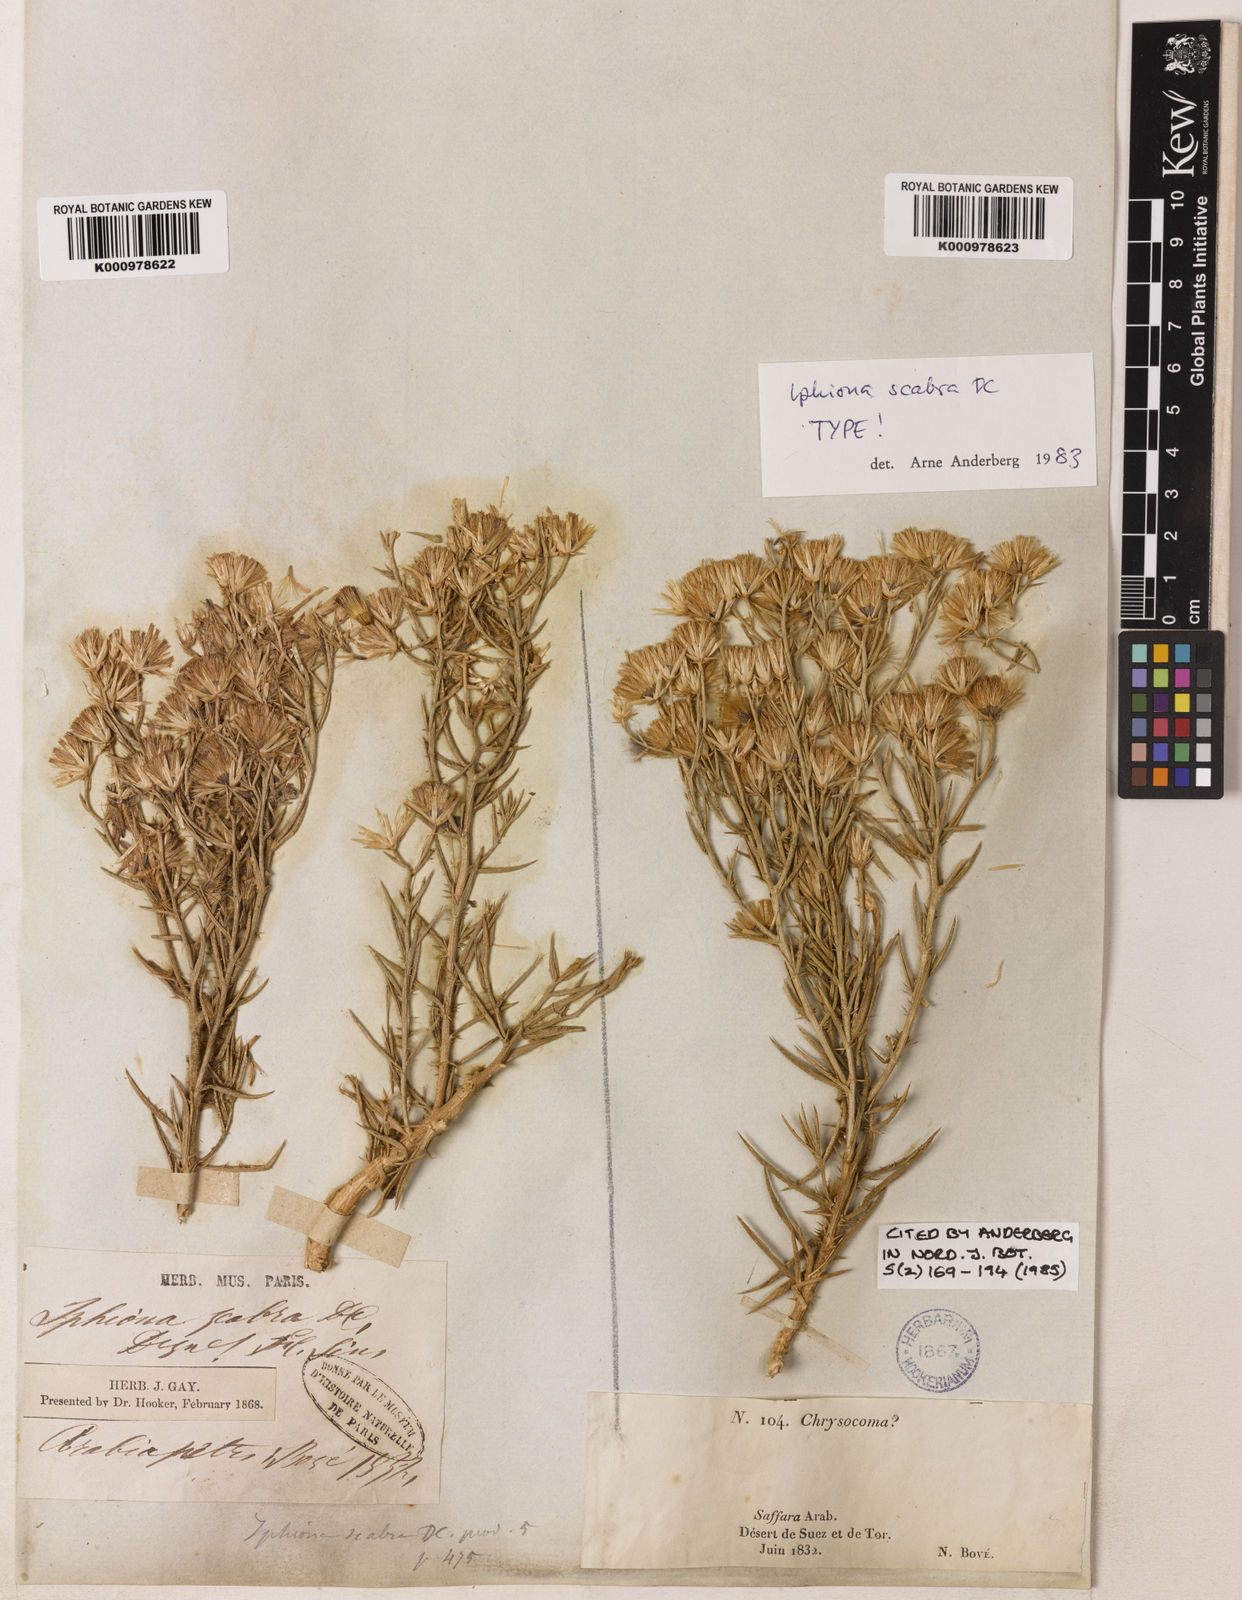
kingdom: Plantae
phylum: Tracheophyta
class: Magnoliopsida
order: Asterales
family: Asteraceae
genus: Iphiona
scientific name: Iphiona
